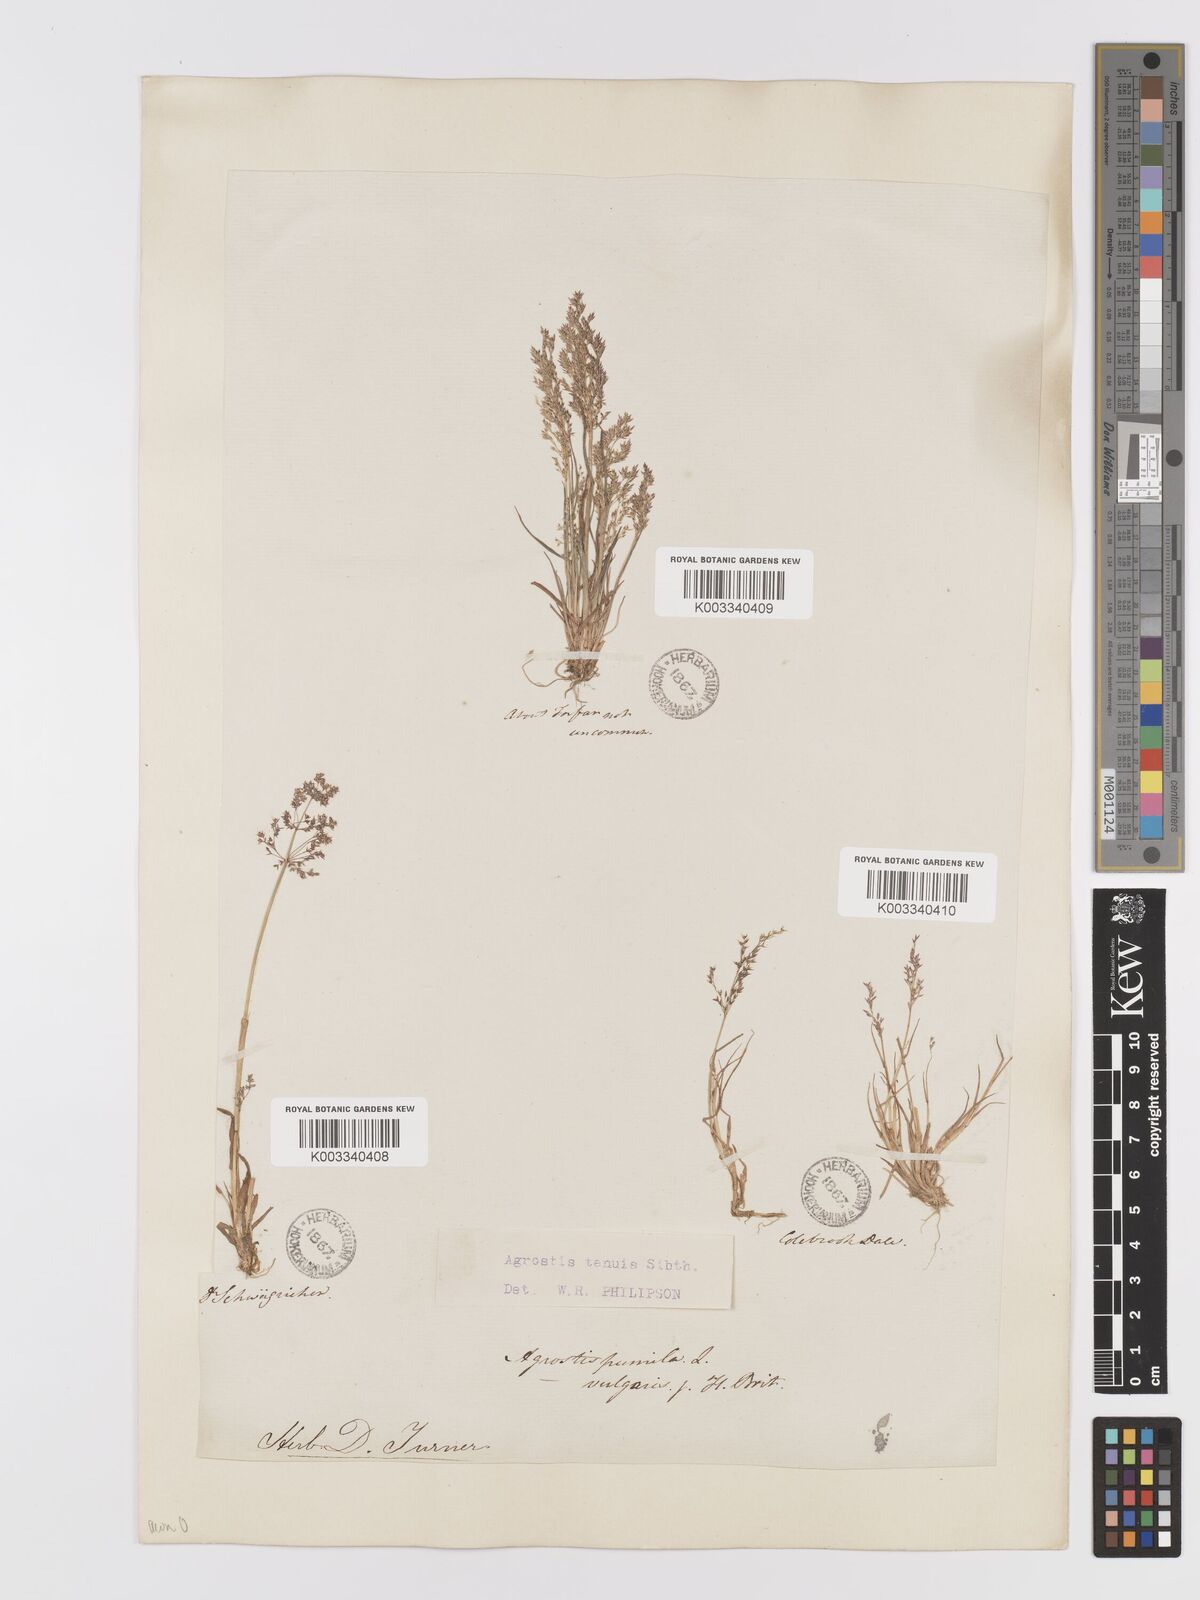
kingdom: Plantae
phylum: Tracheophyta
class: Liliopsida
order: Poales
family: Poaceae
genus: Agrostis
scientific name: Agrostis capillaris
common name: Colonial bentgrass
